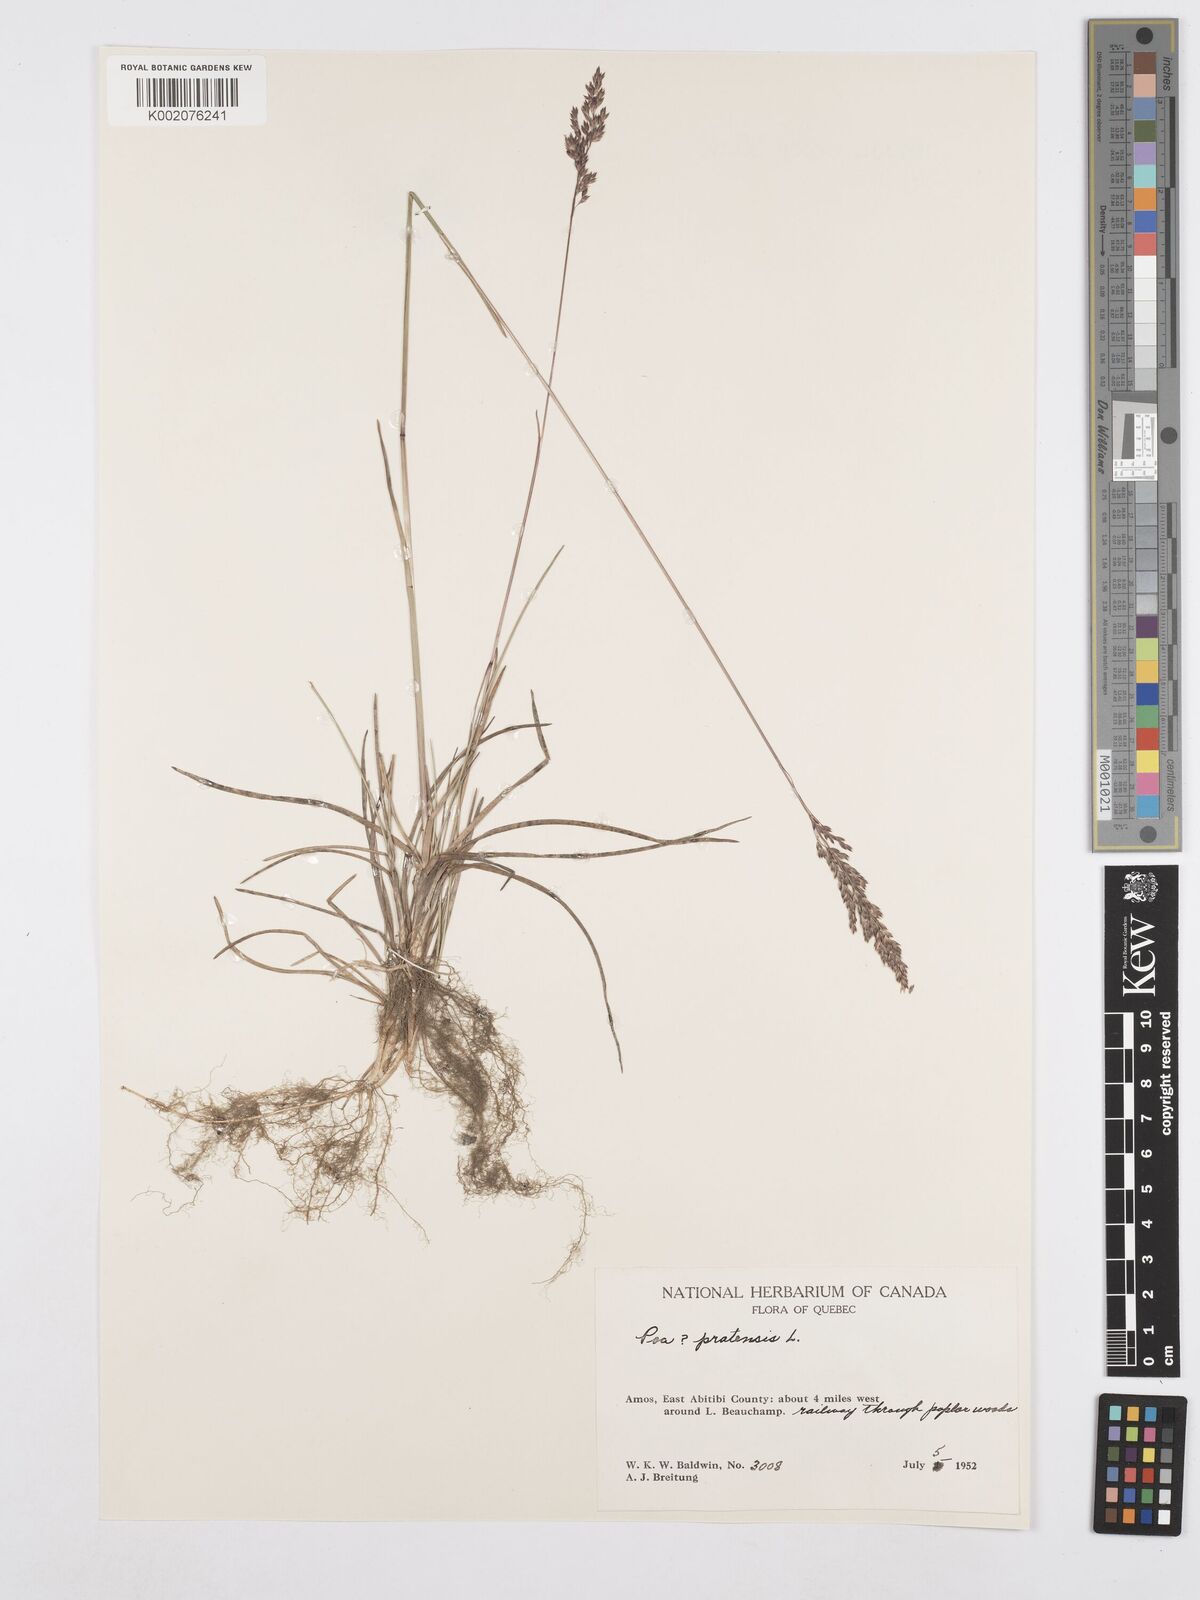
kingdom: Plantae
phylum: Tracheophyta
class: Liliopsida
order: Poales
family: Poaceae
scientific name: Poaceae
